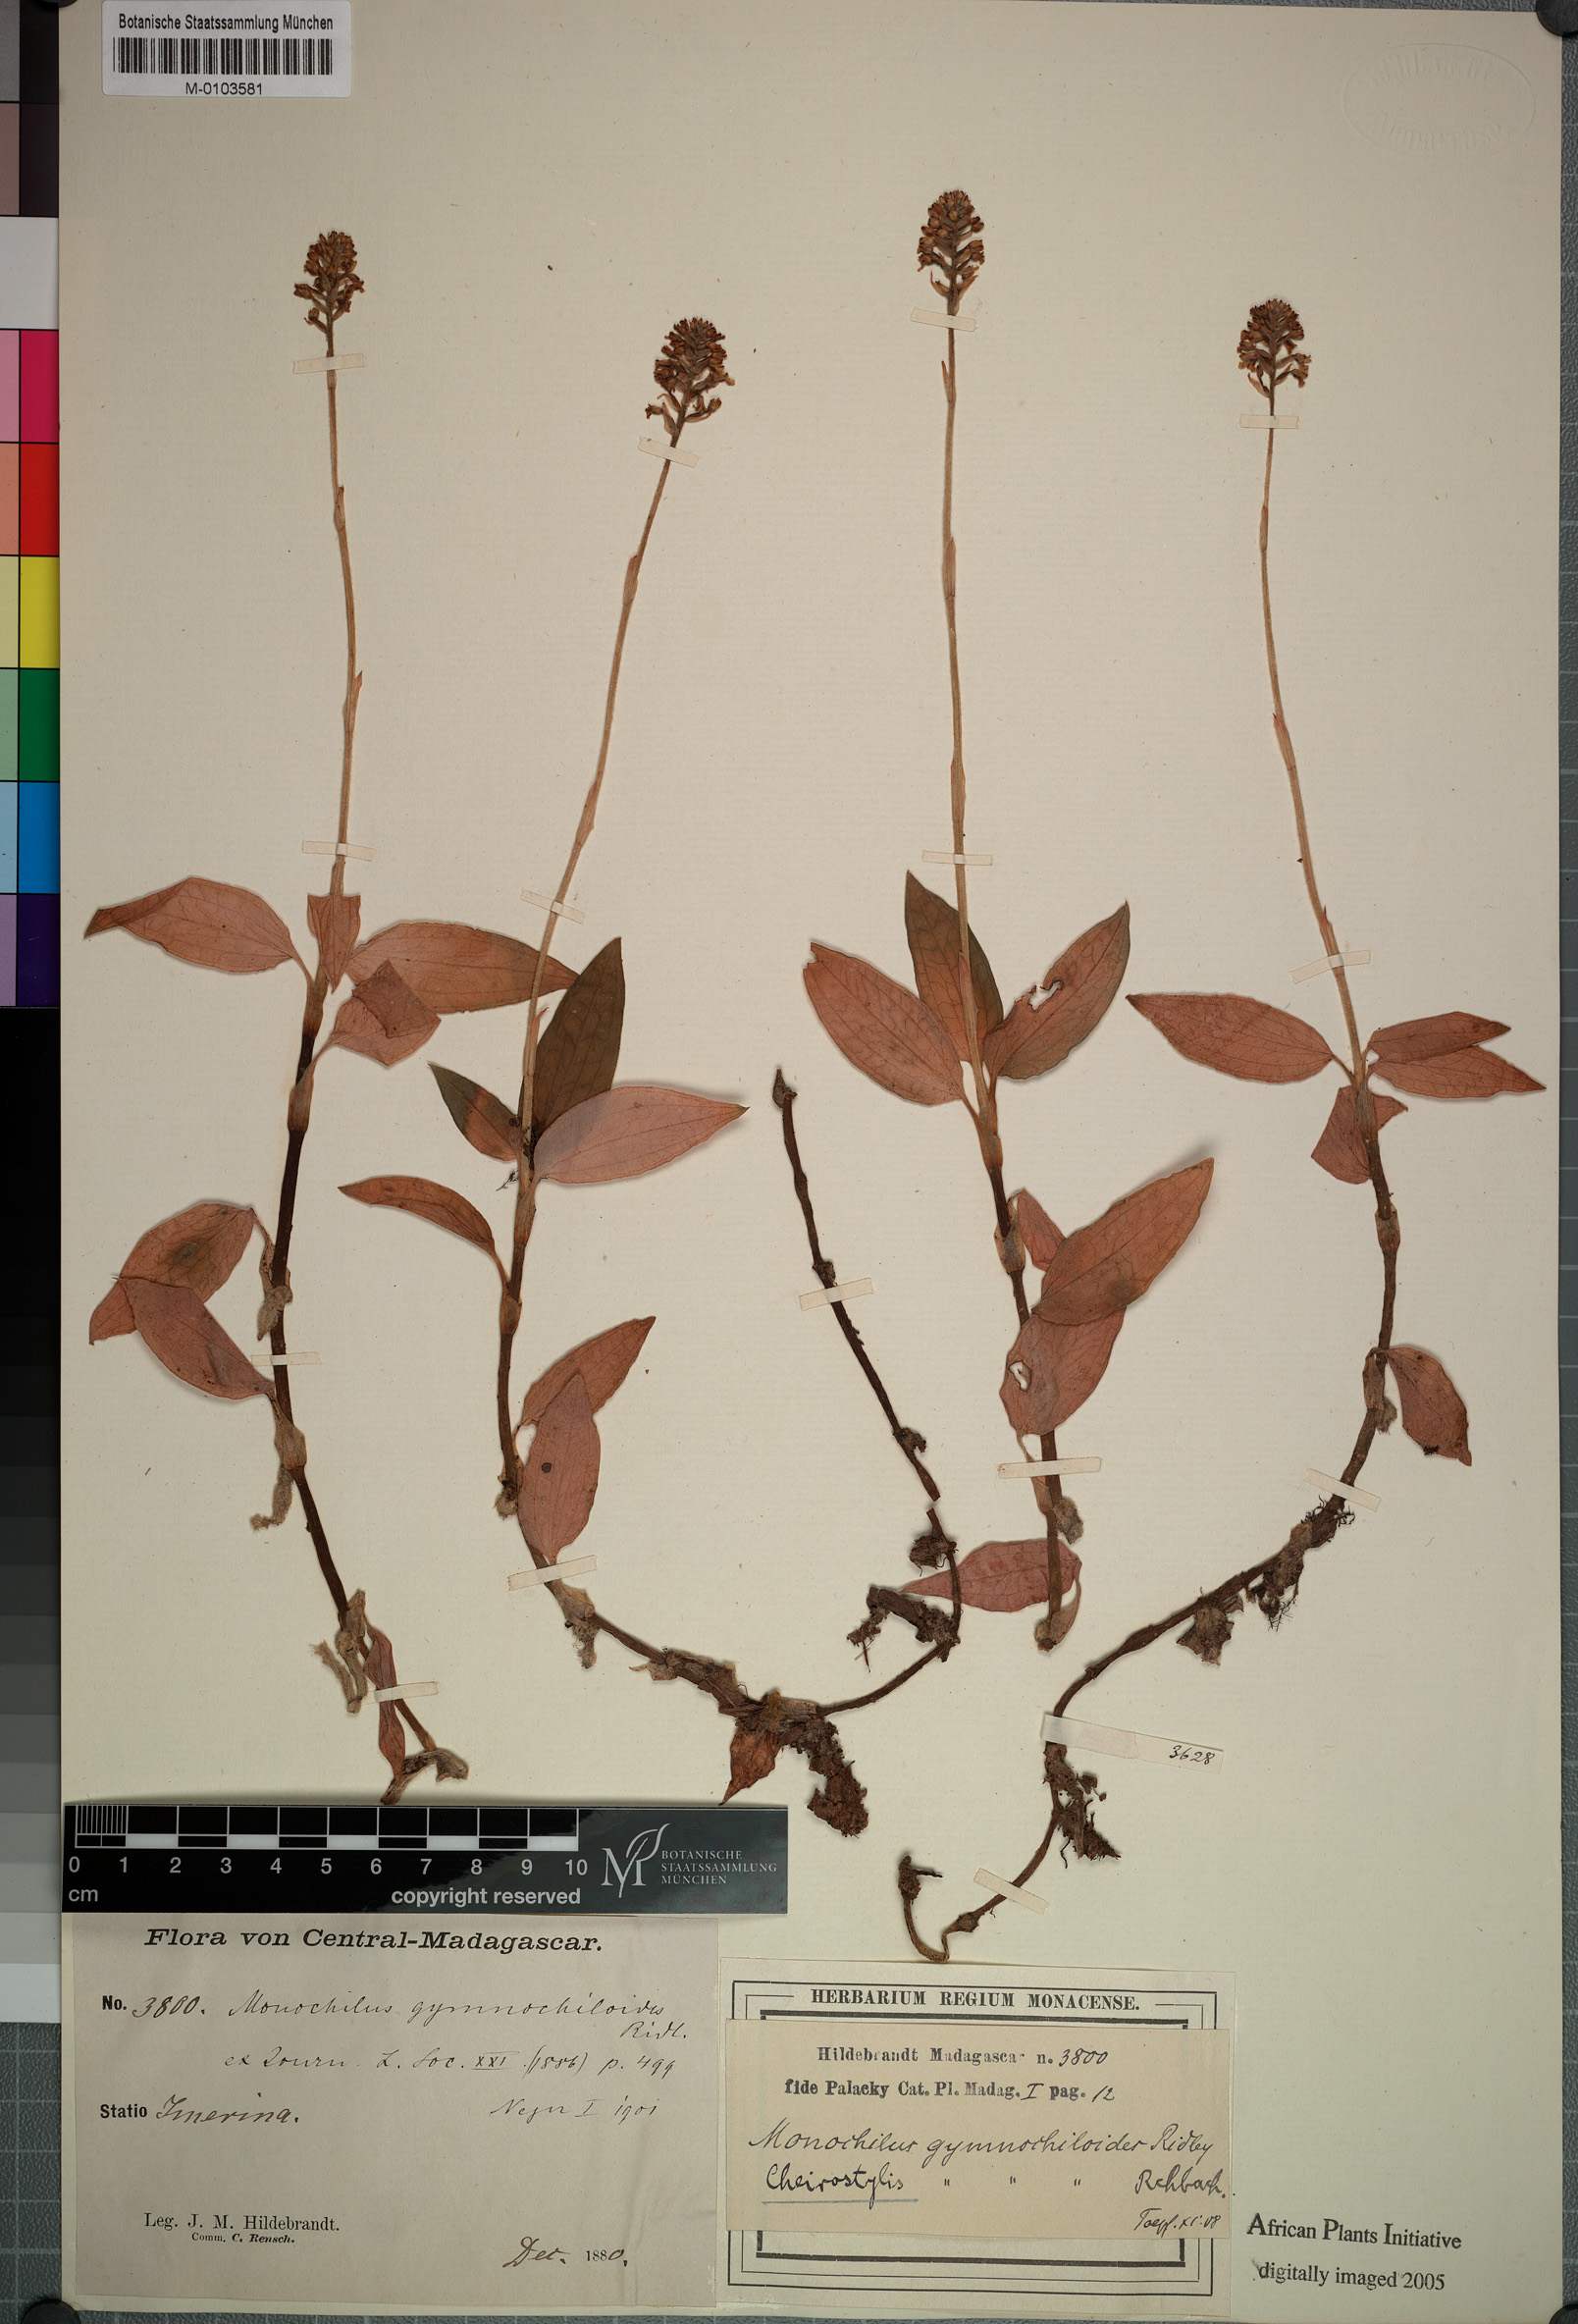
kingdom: Plantae
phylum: Tracheophyta
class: Liliopsida
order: Asparagales
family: Orchidaceae
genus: Cheirostylis
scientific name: Cheirostylis nuda
